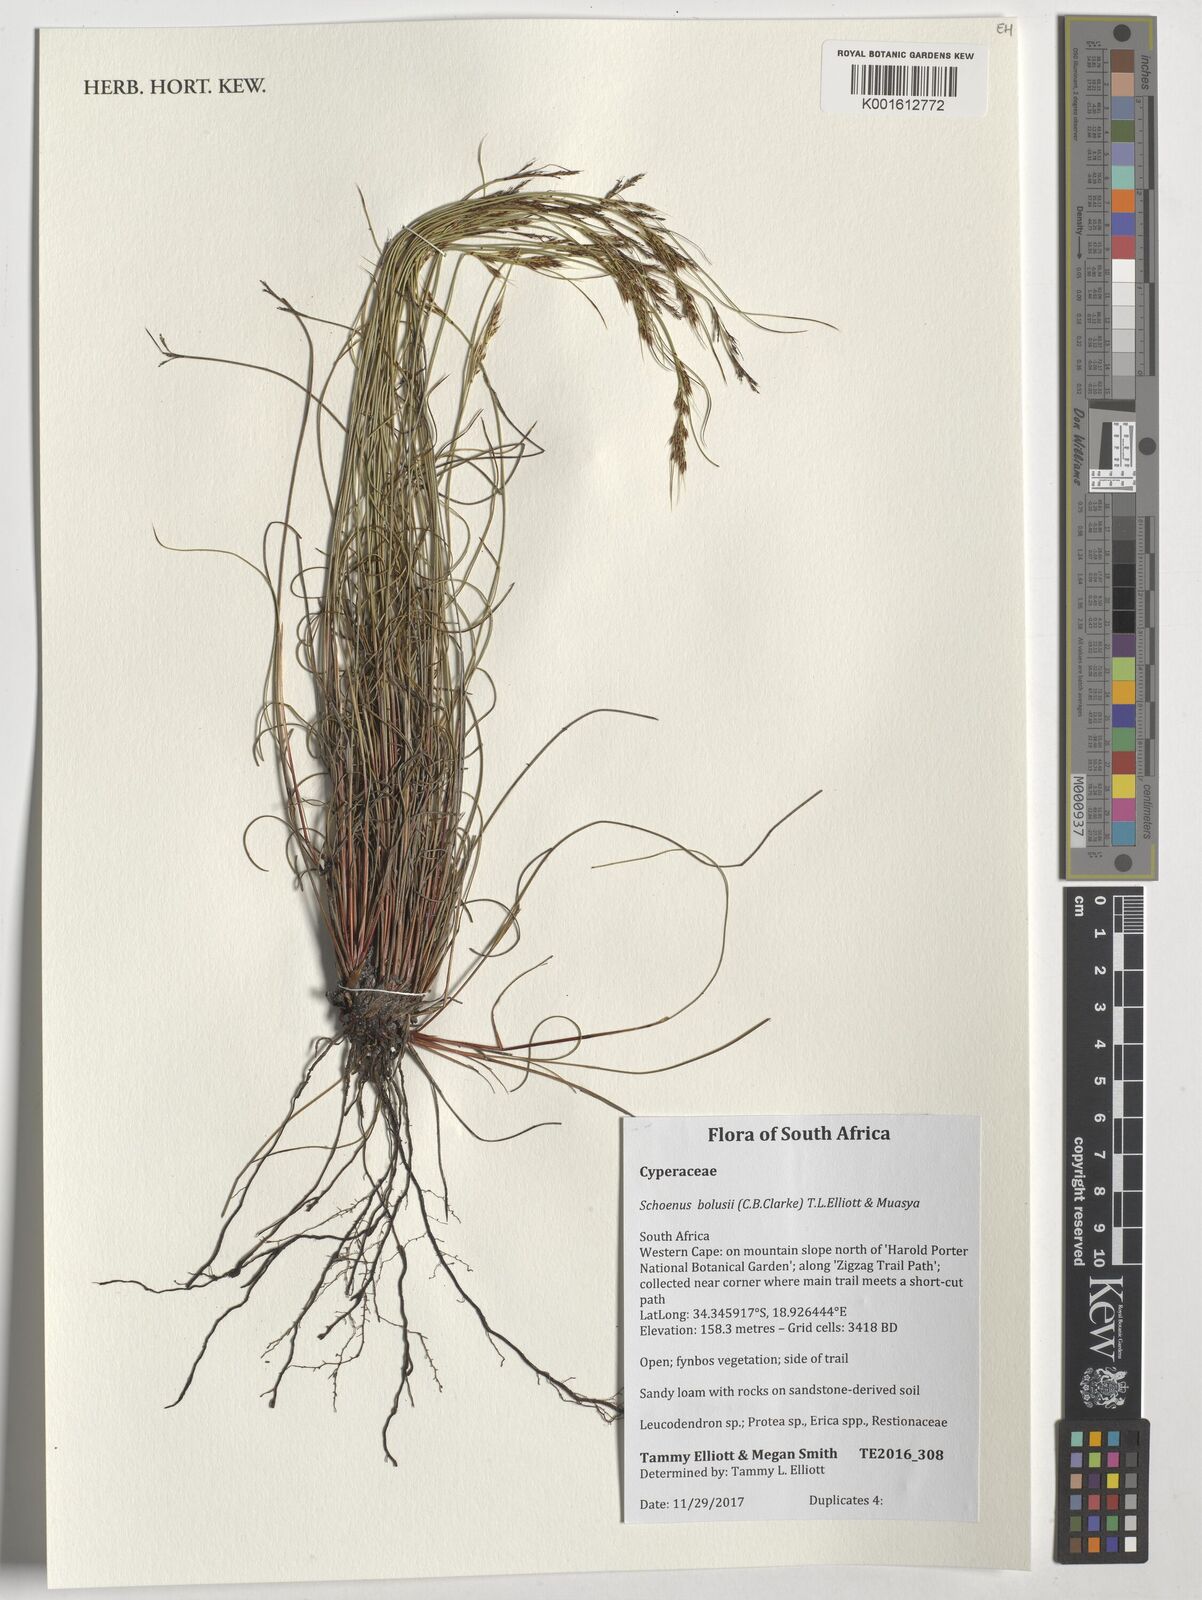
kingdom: Plantae
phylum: Tracheophyta
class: Liliopsida
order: Poales
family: Cyperaceae
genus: Schoenus
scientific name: Schoenus bolusii
